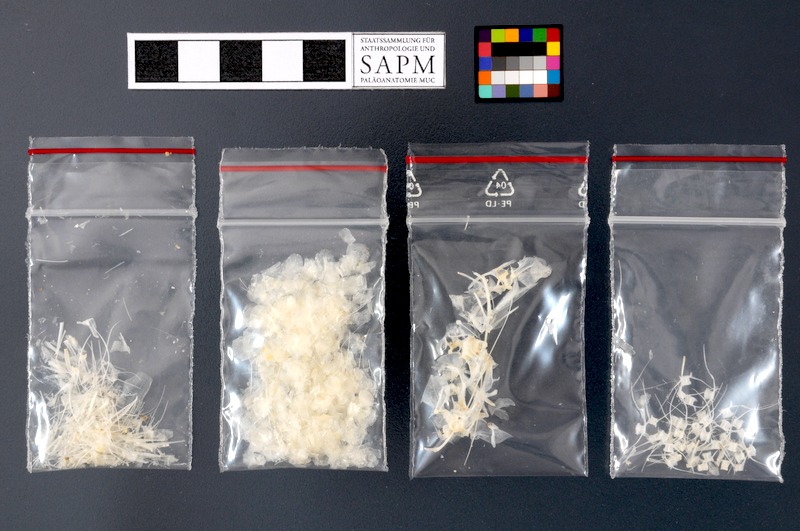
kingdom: Animalia
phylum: Chordata
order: Clupeiformes
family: Engraulidae
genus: Thryssa
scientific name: Thryssa setirostris
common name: Longjaw thryssa
